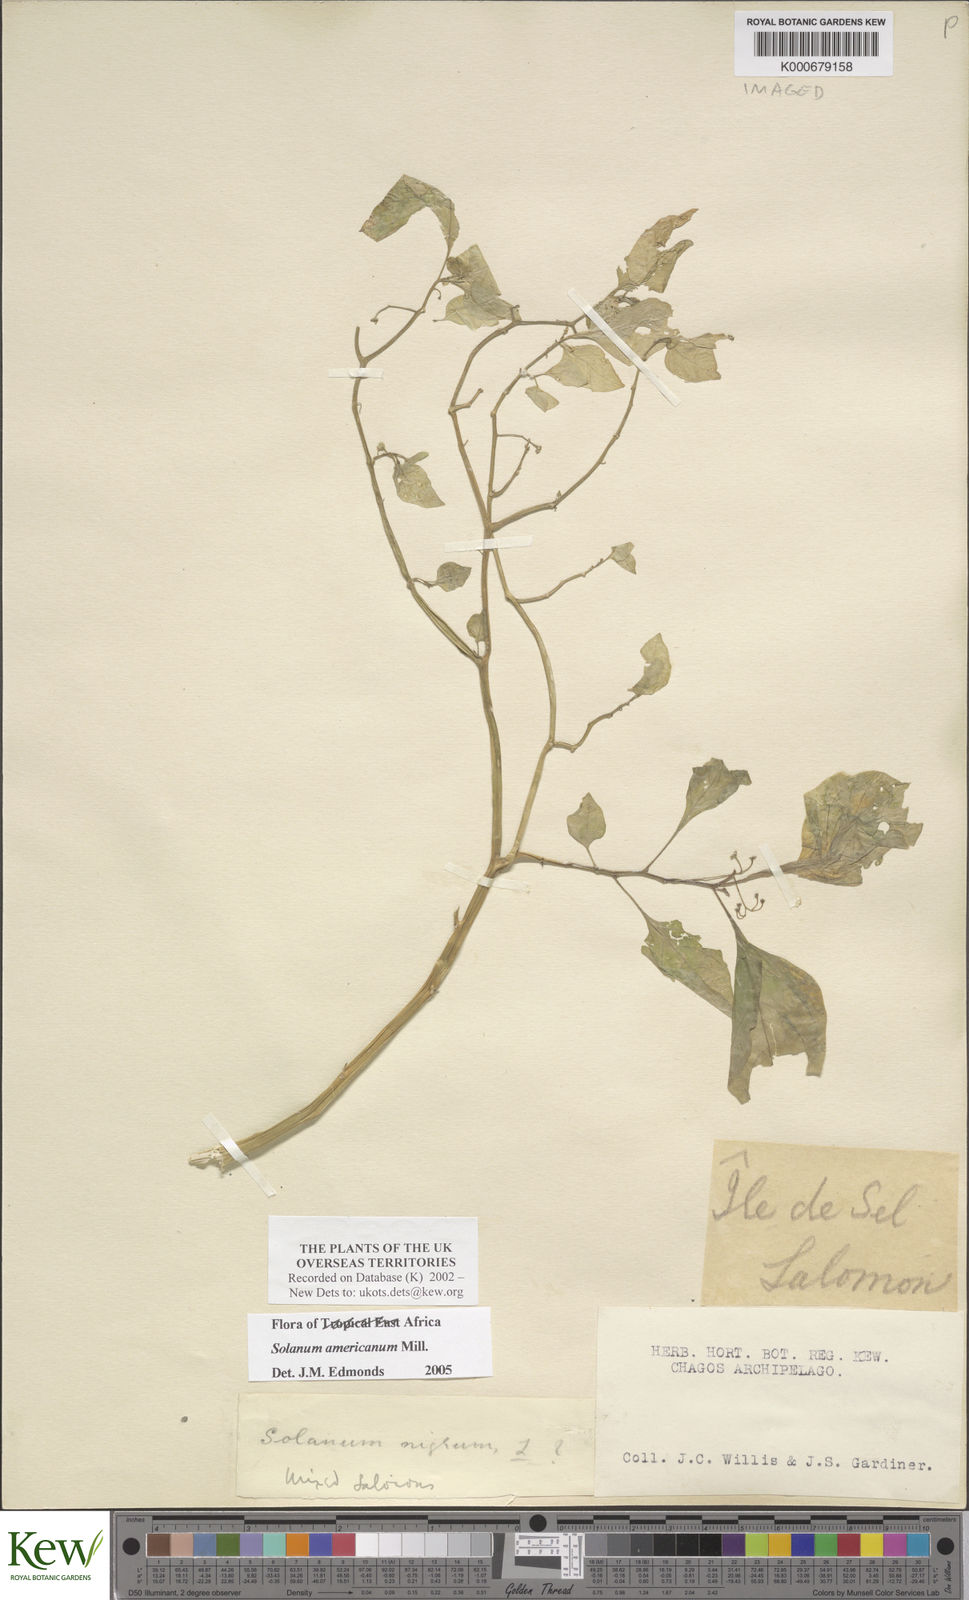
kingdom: Plantae
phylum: Tracheophyta
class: Magnoliopsida
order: Solanales
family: Solanaceae
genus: Solanum
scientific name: Solanum americanum
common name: American black nightshade
